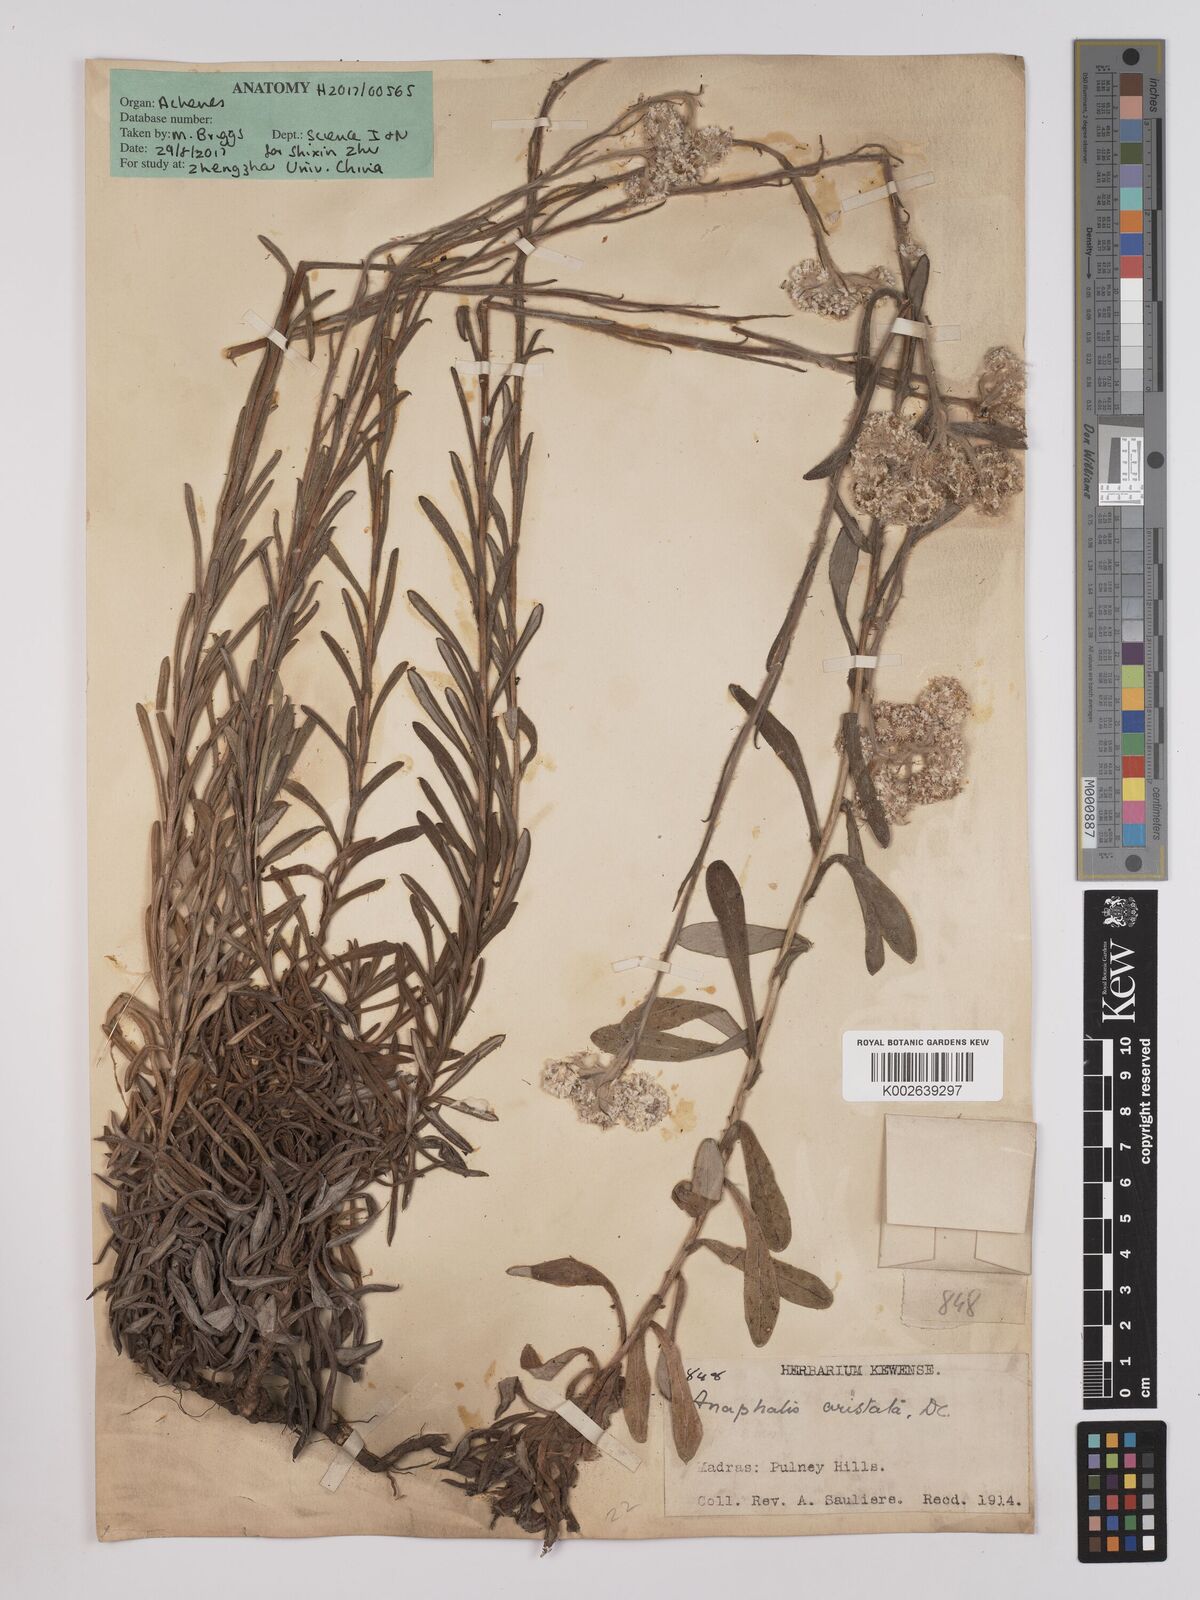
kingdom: Plantae
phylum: Tracheophyta
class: Magnoliopsida
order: Asterales
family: Asteraceae
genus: Anaphalis
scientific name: Anaphalis aristata
